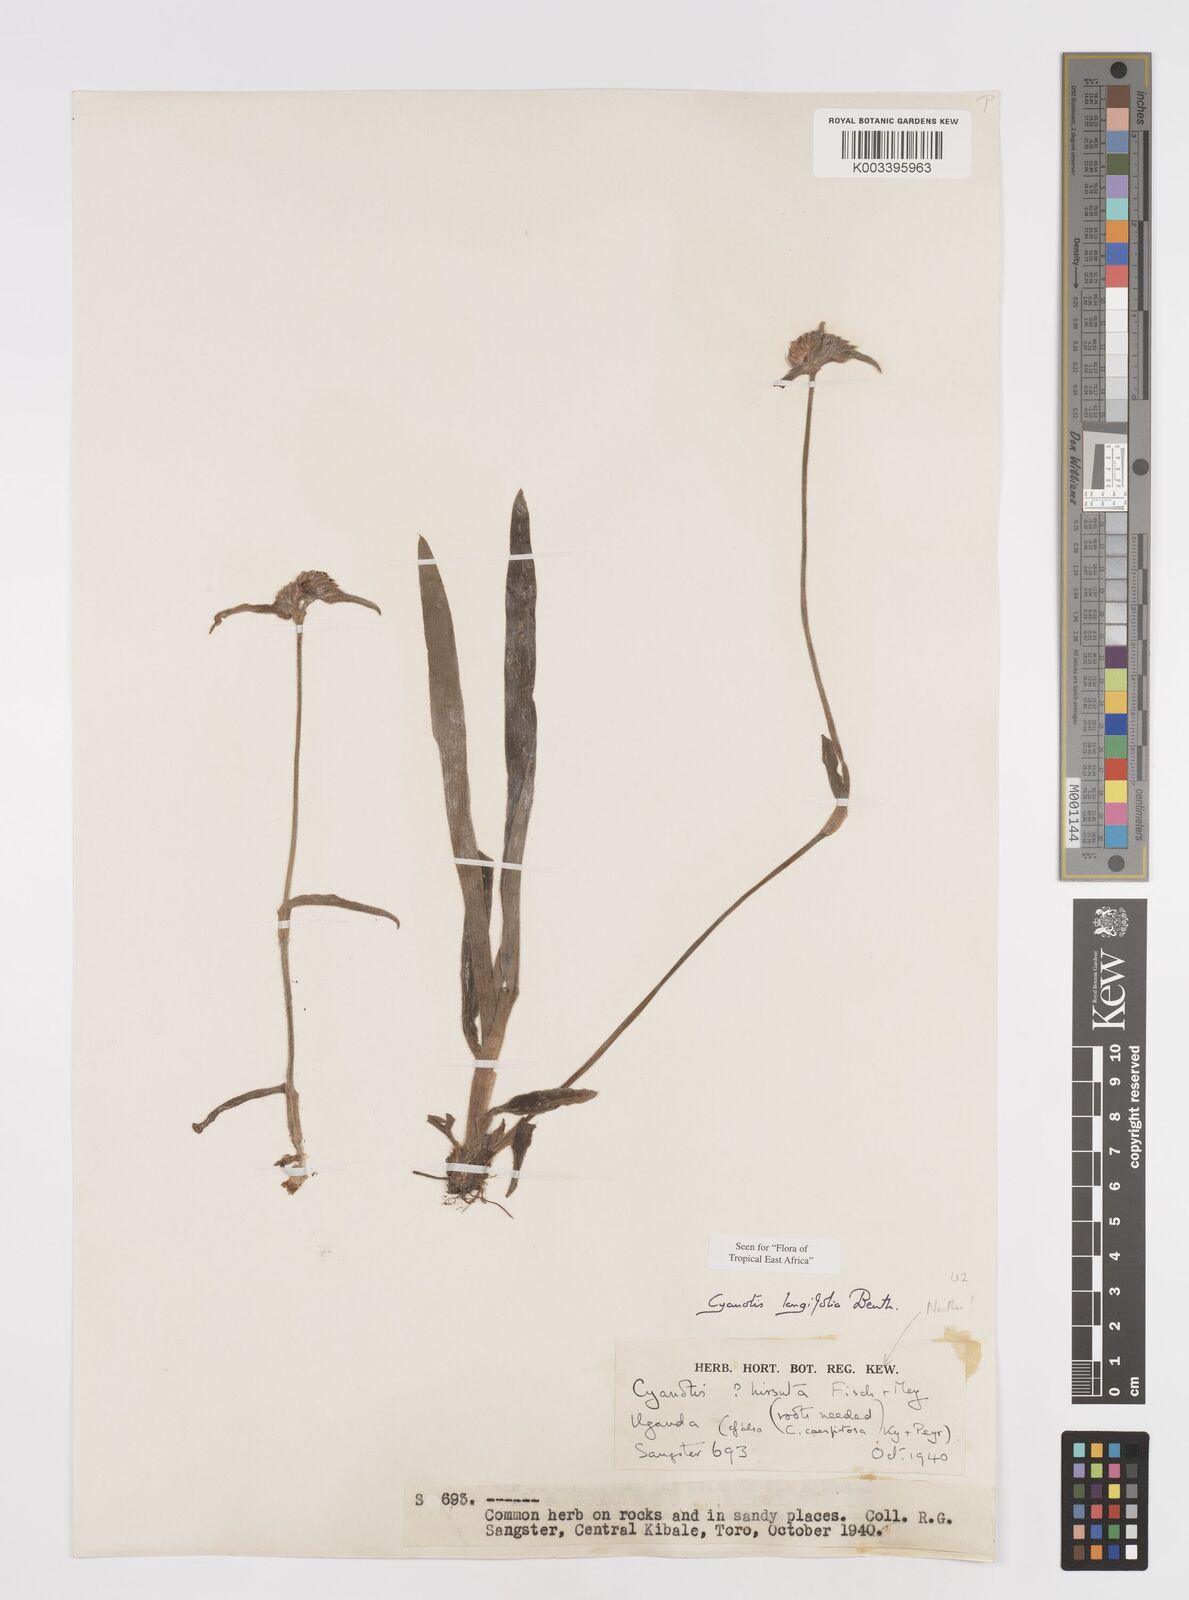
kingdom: Plantae
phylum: Tracheophyta
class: Liliopsida
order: Commelinales
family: Commelinaceae
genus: Cyanotis
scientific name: Cyanotis longifolia
